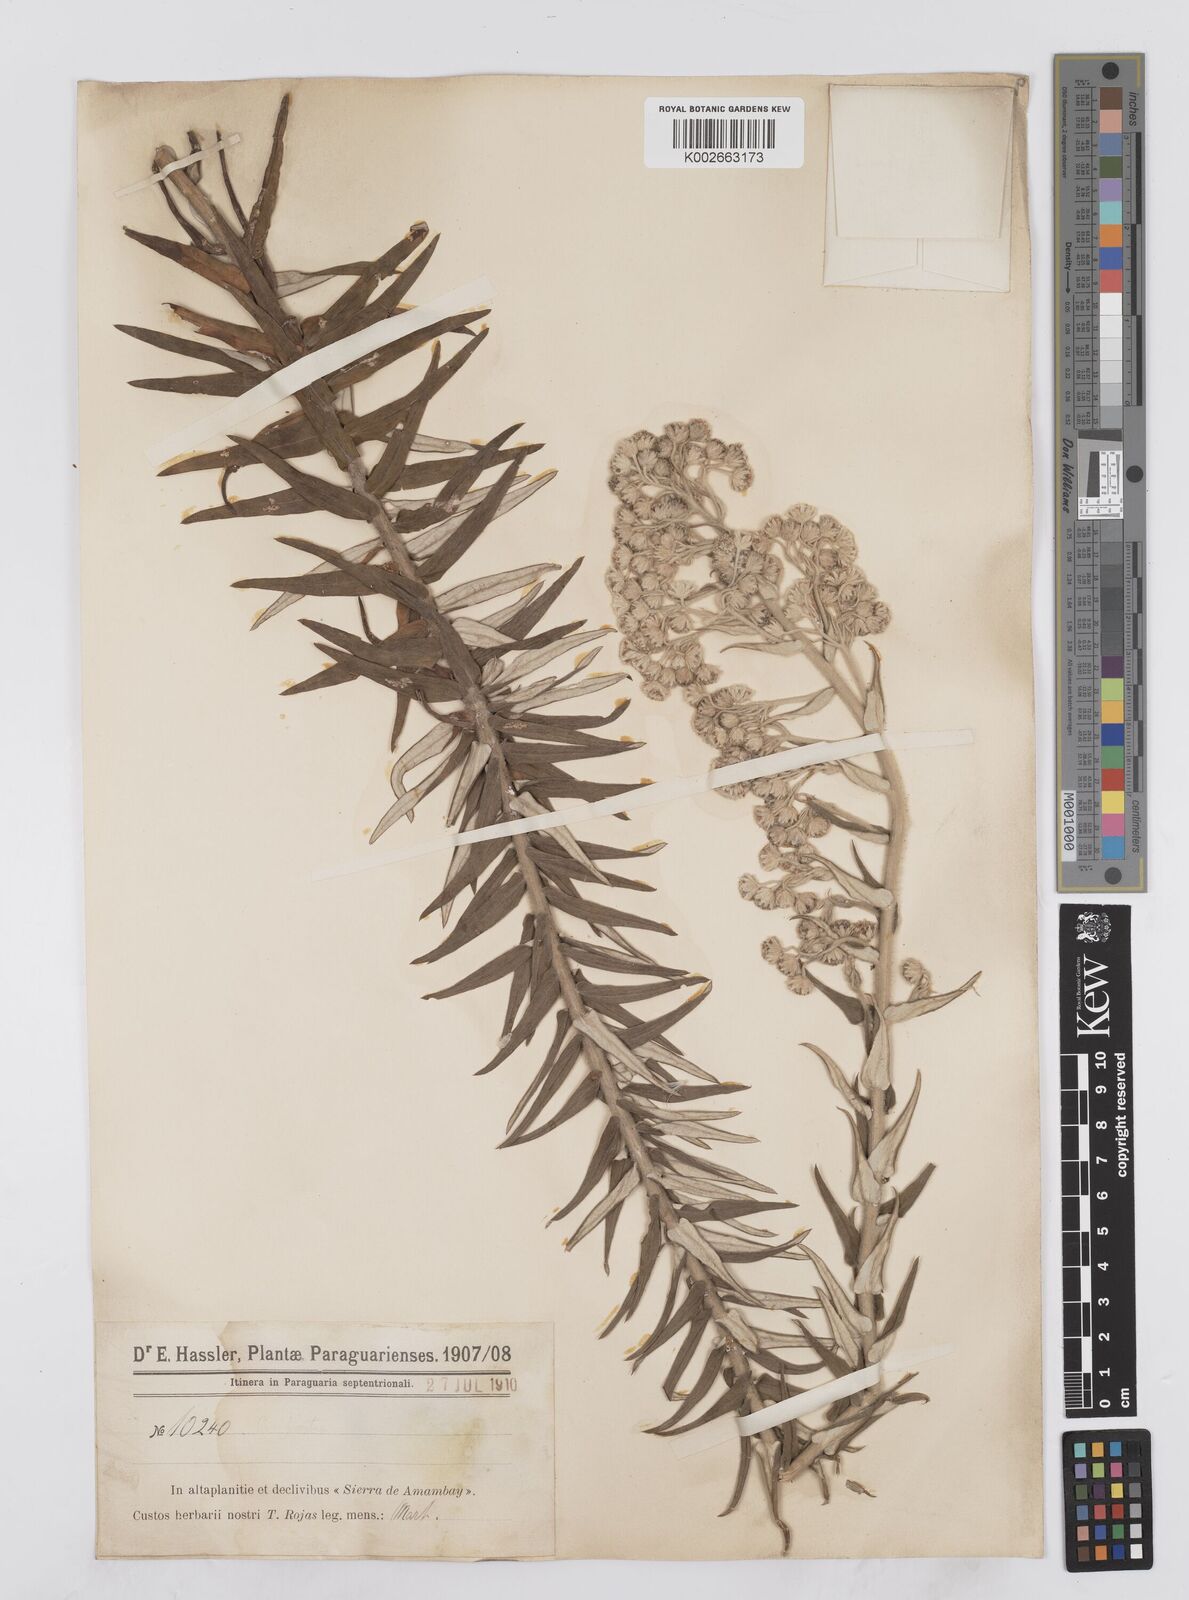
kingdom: Plantae
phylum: Tracheophyta
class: Magnoliopsida
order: Asterales
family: Asteraceae
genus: Baccharis
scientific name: Baccharis helichrysoides
